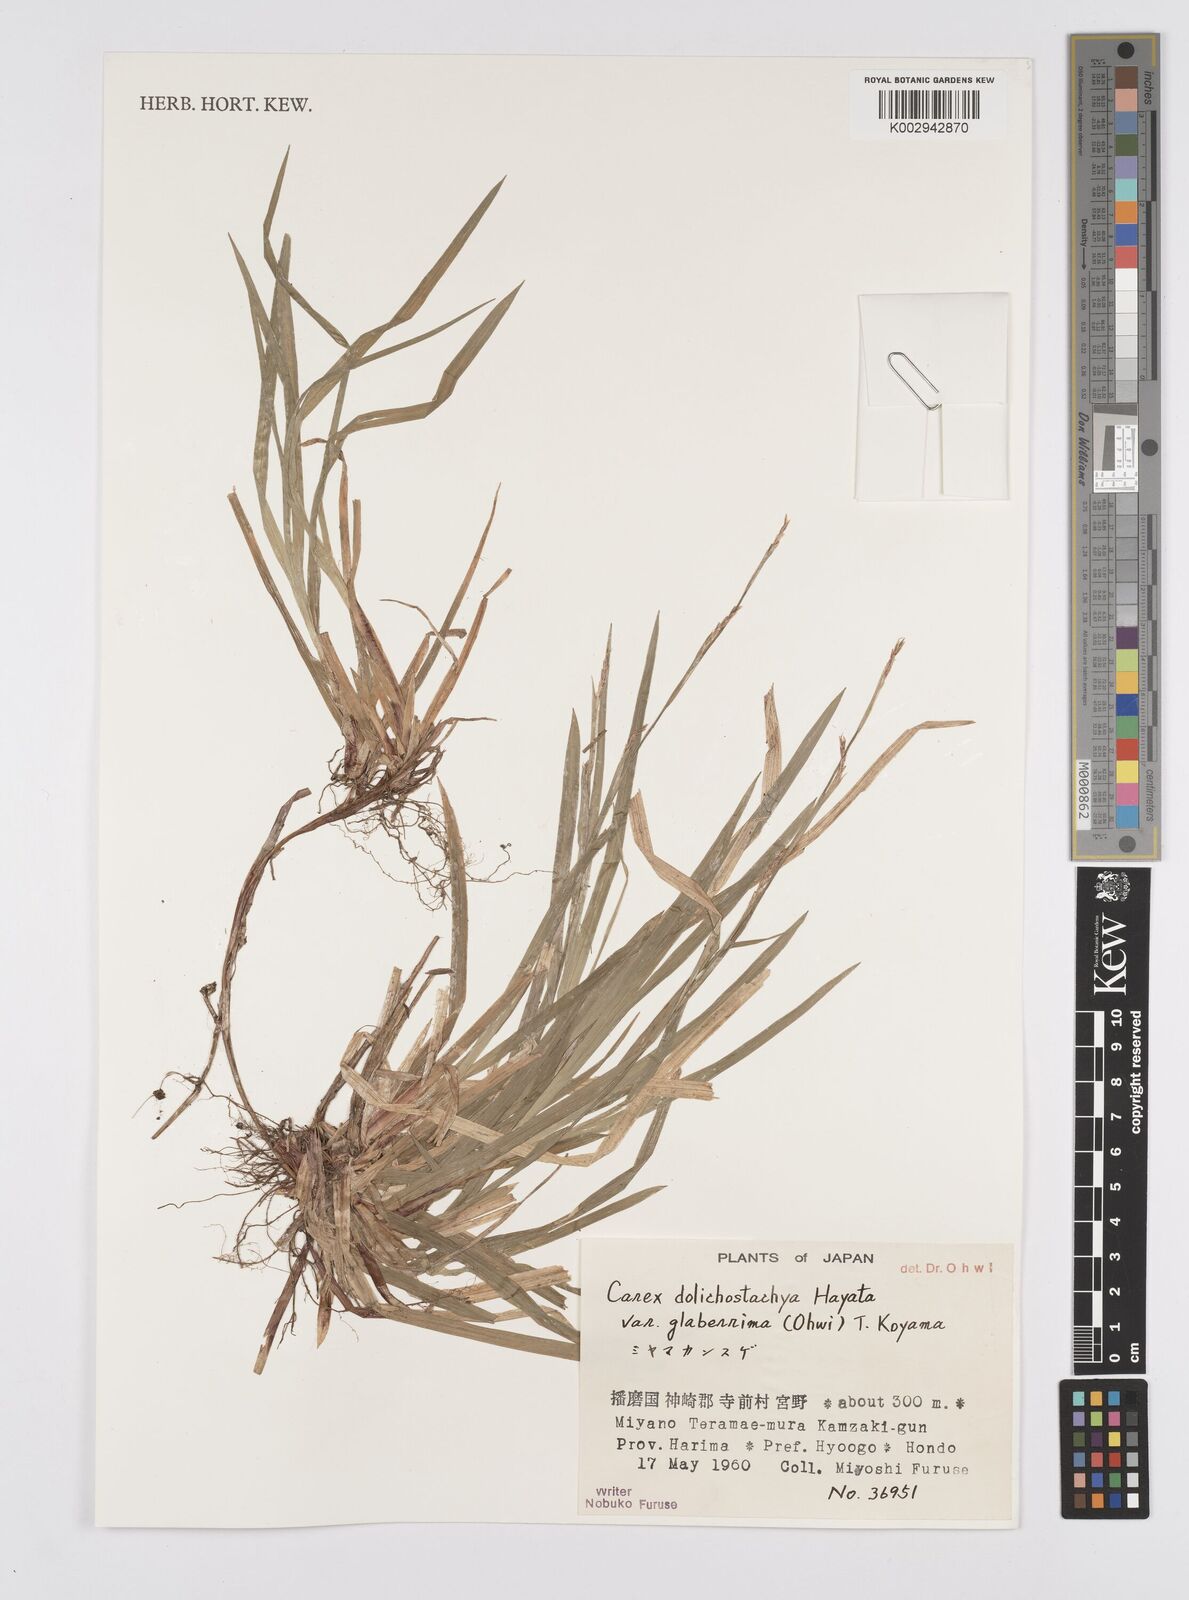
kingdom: Plantae
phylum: Tracheophyta
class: Liliopsida
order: Poales
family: Cyperaceae
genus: Carex
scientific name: Carex dolichostachya
